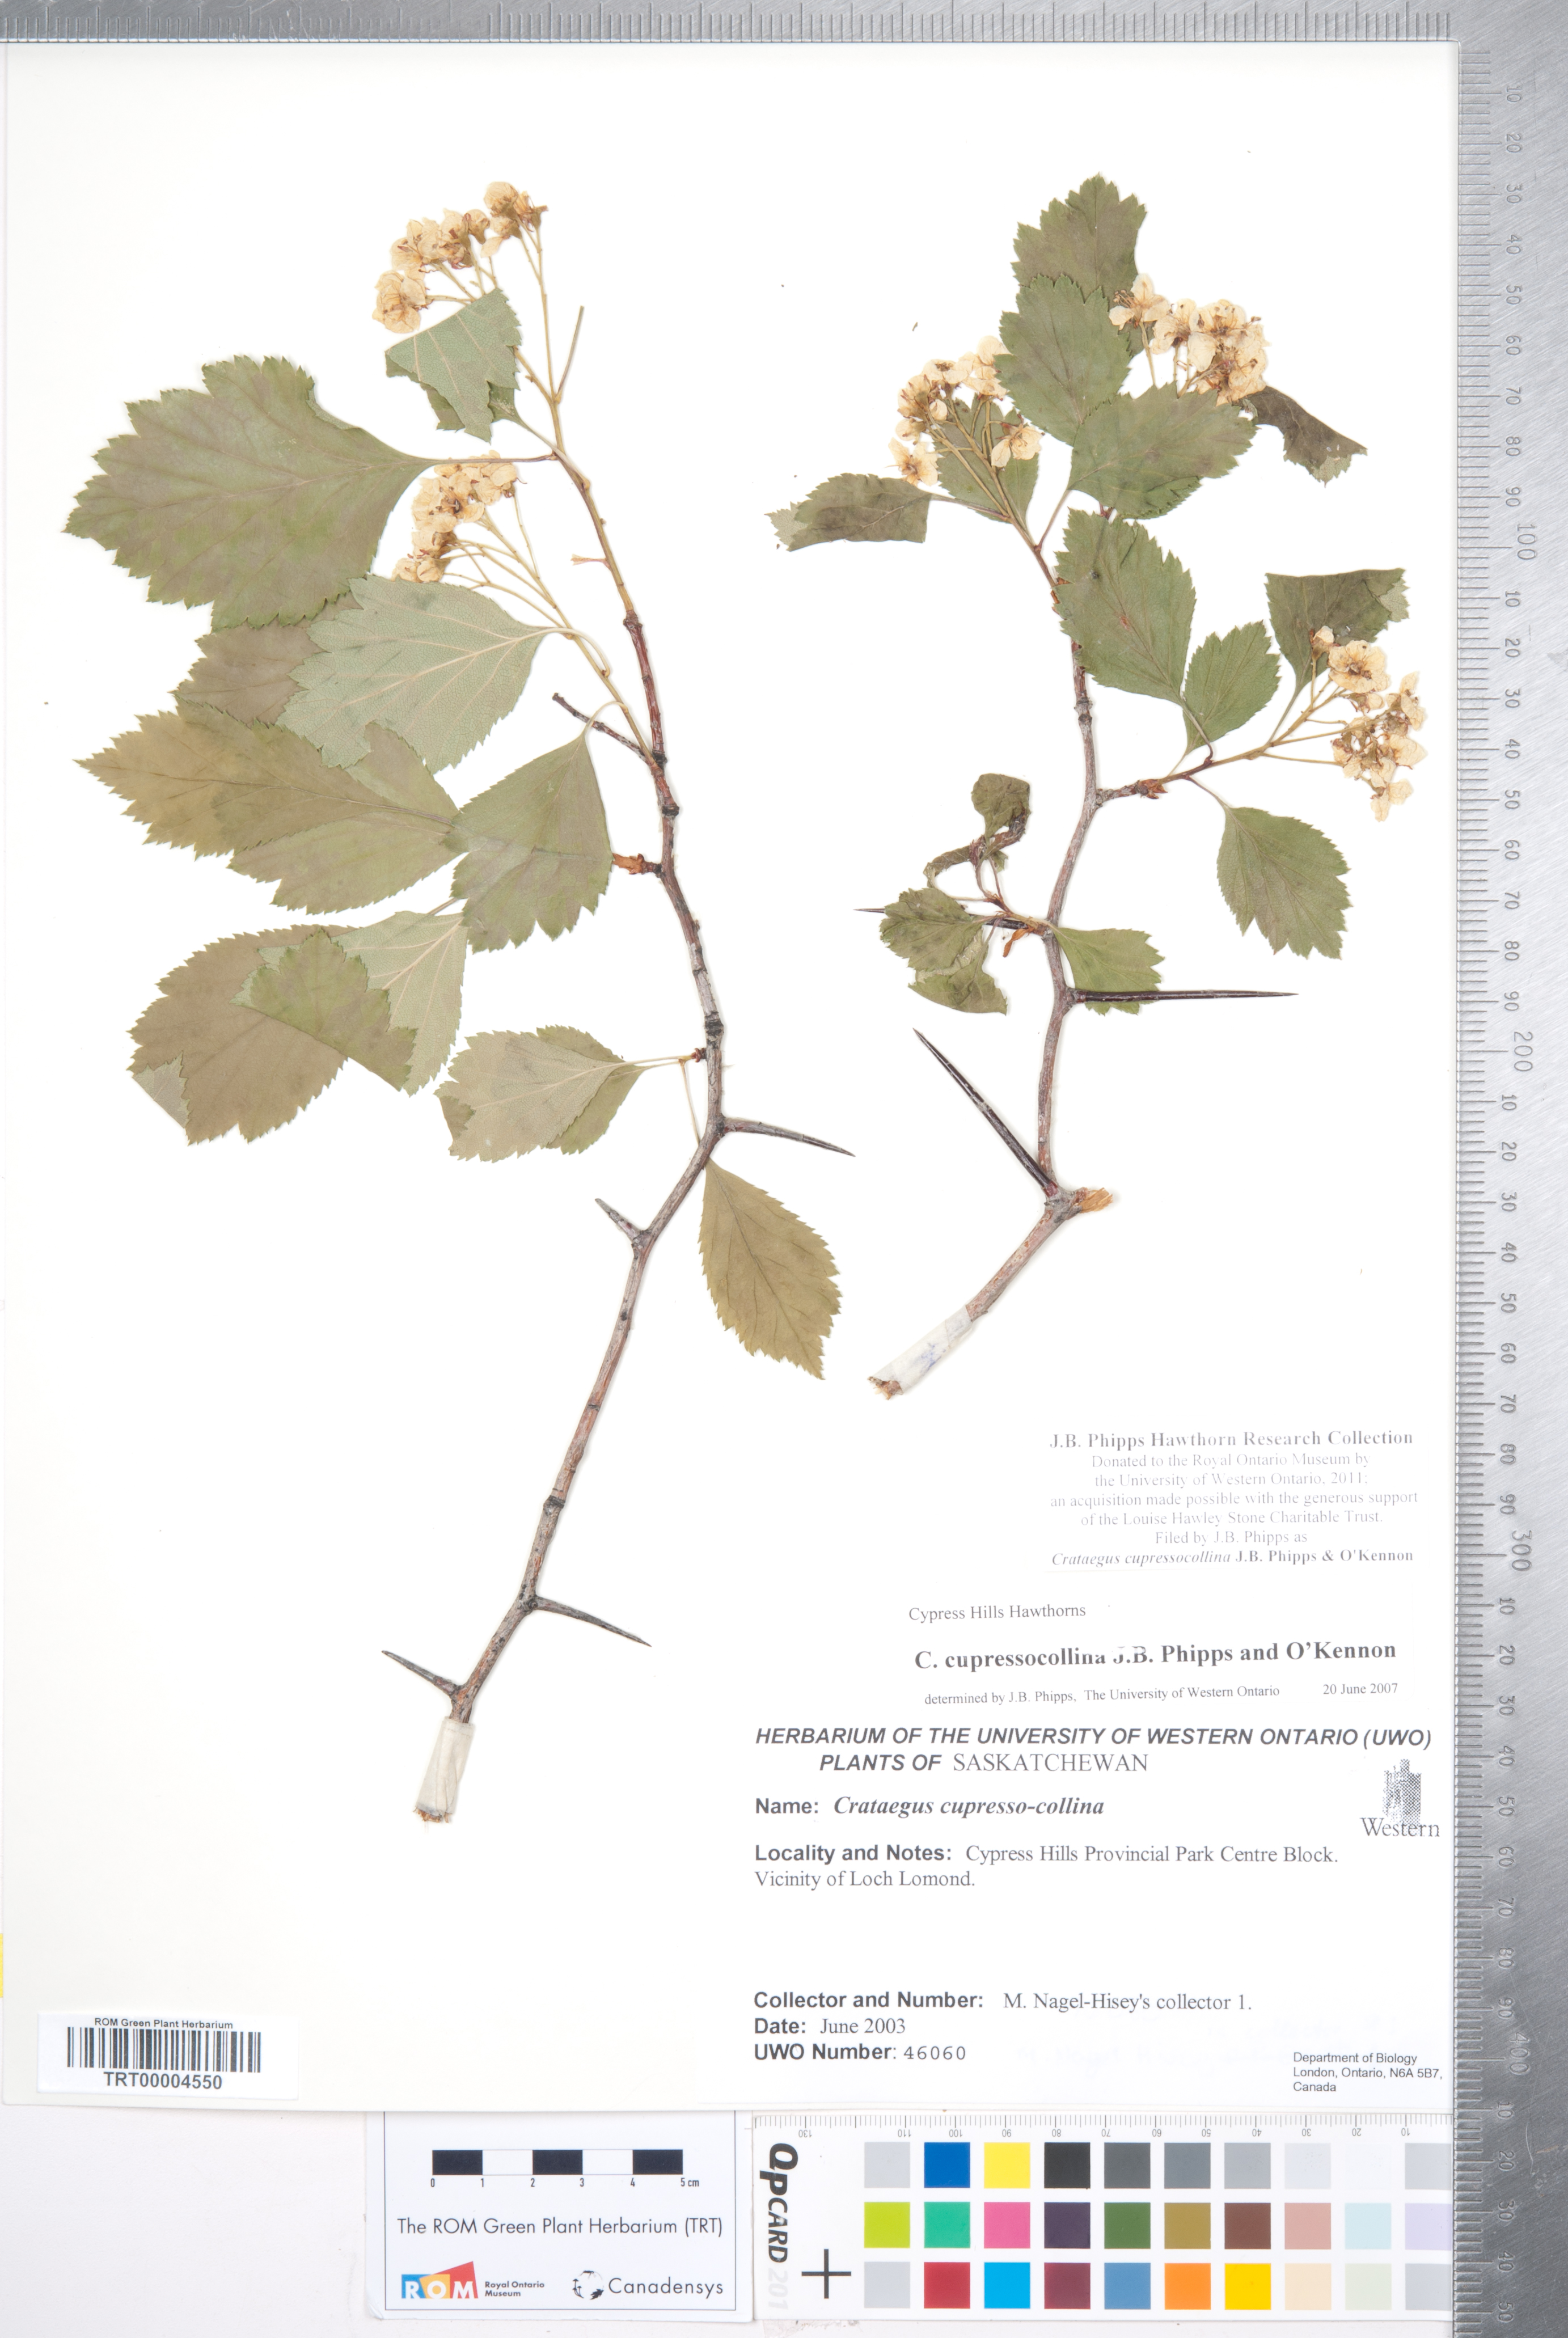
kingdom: Plantae
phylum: Tracheophyta
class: Magnoliopsida
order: Rosales
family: Rosaceae
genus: Crataegus
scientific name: Crataegus cupressocollina
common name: Cypress hills hawthorn
